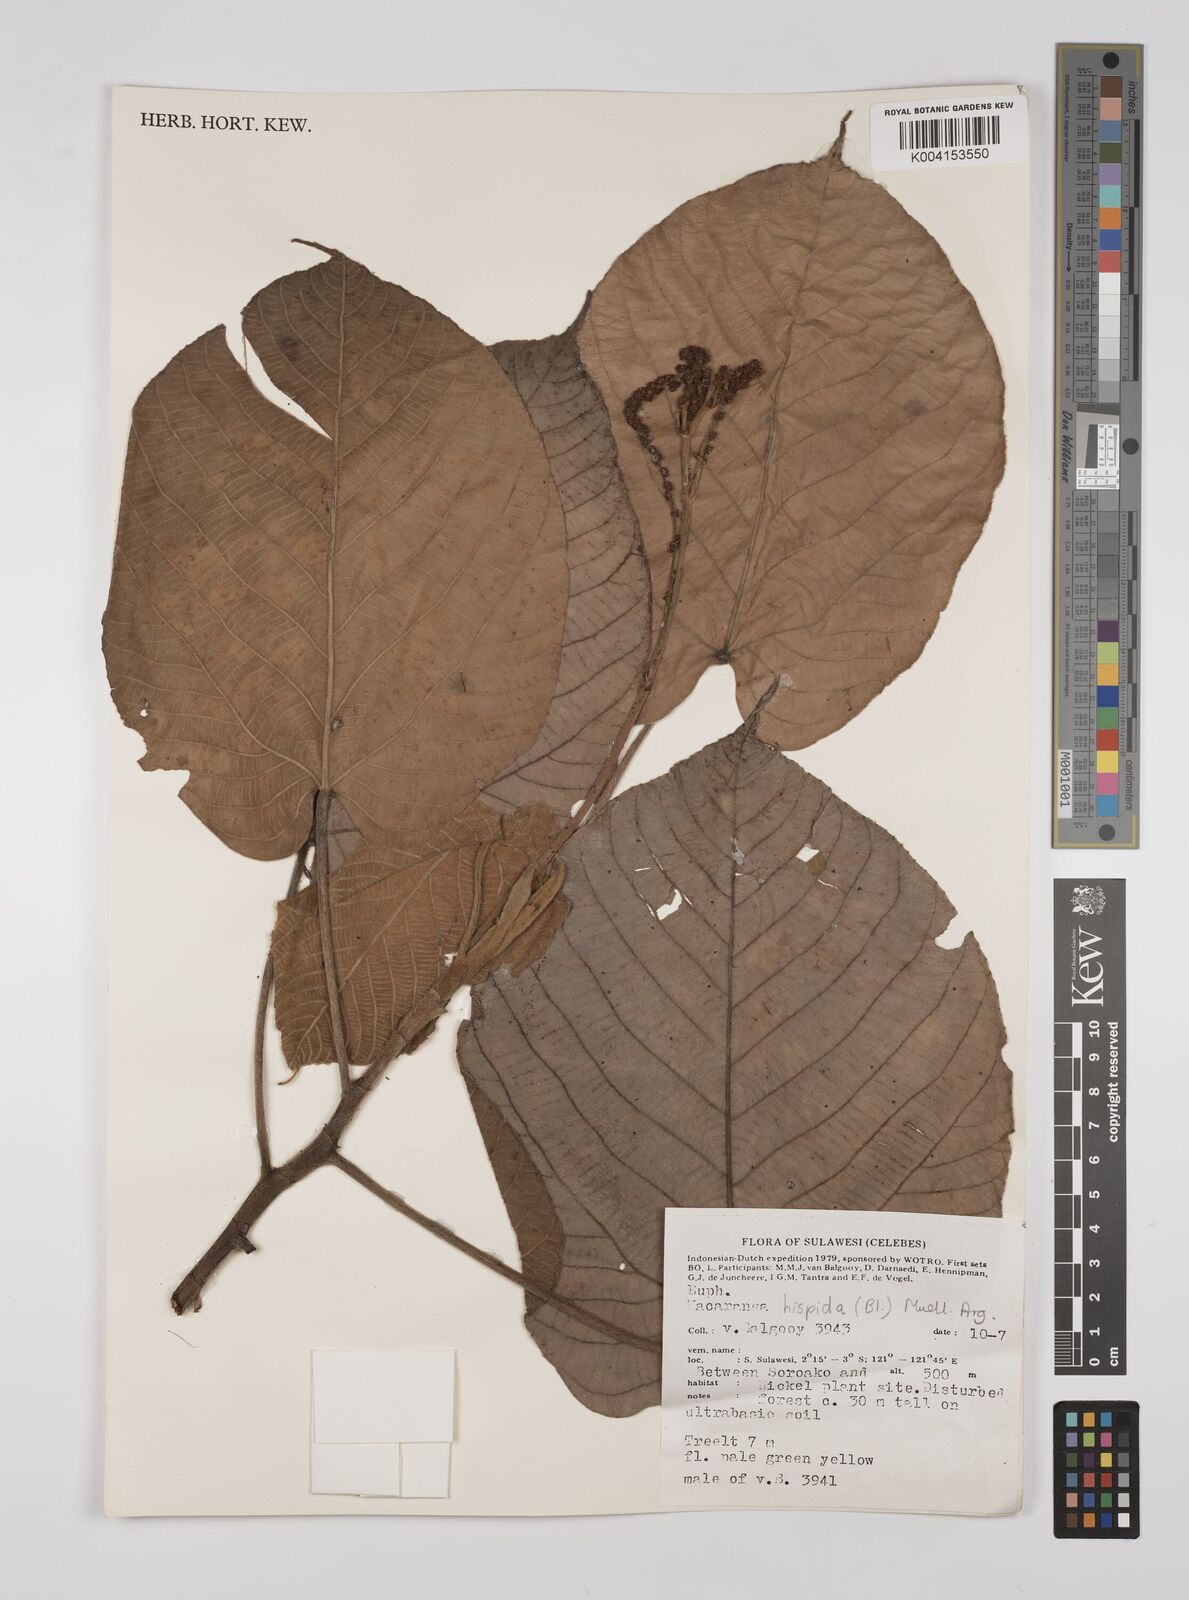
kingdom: Plantae
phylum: Tracheophyta
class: Magnoliopsida
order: Malpighiales
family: Euphorbiaceae
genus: Macaranga
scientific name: Macaranga hispida
